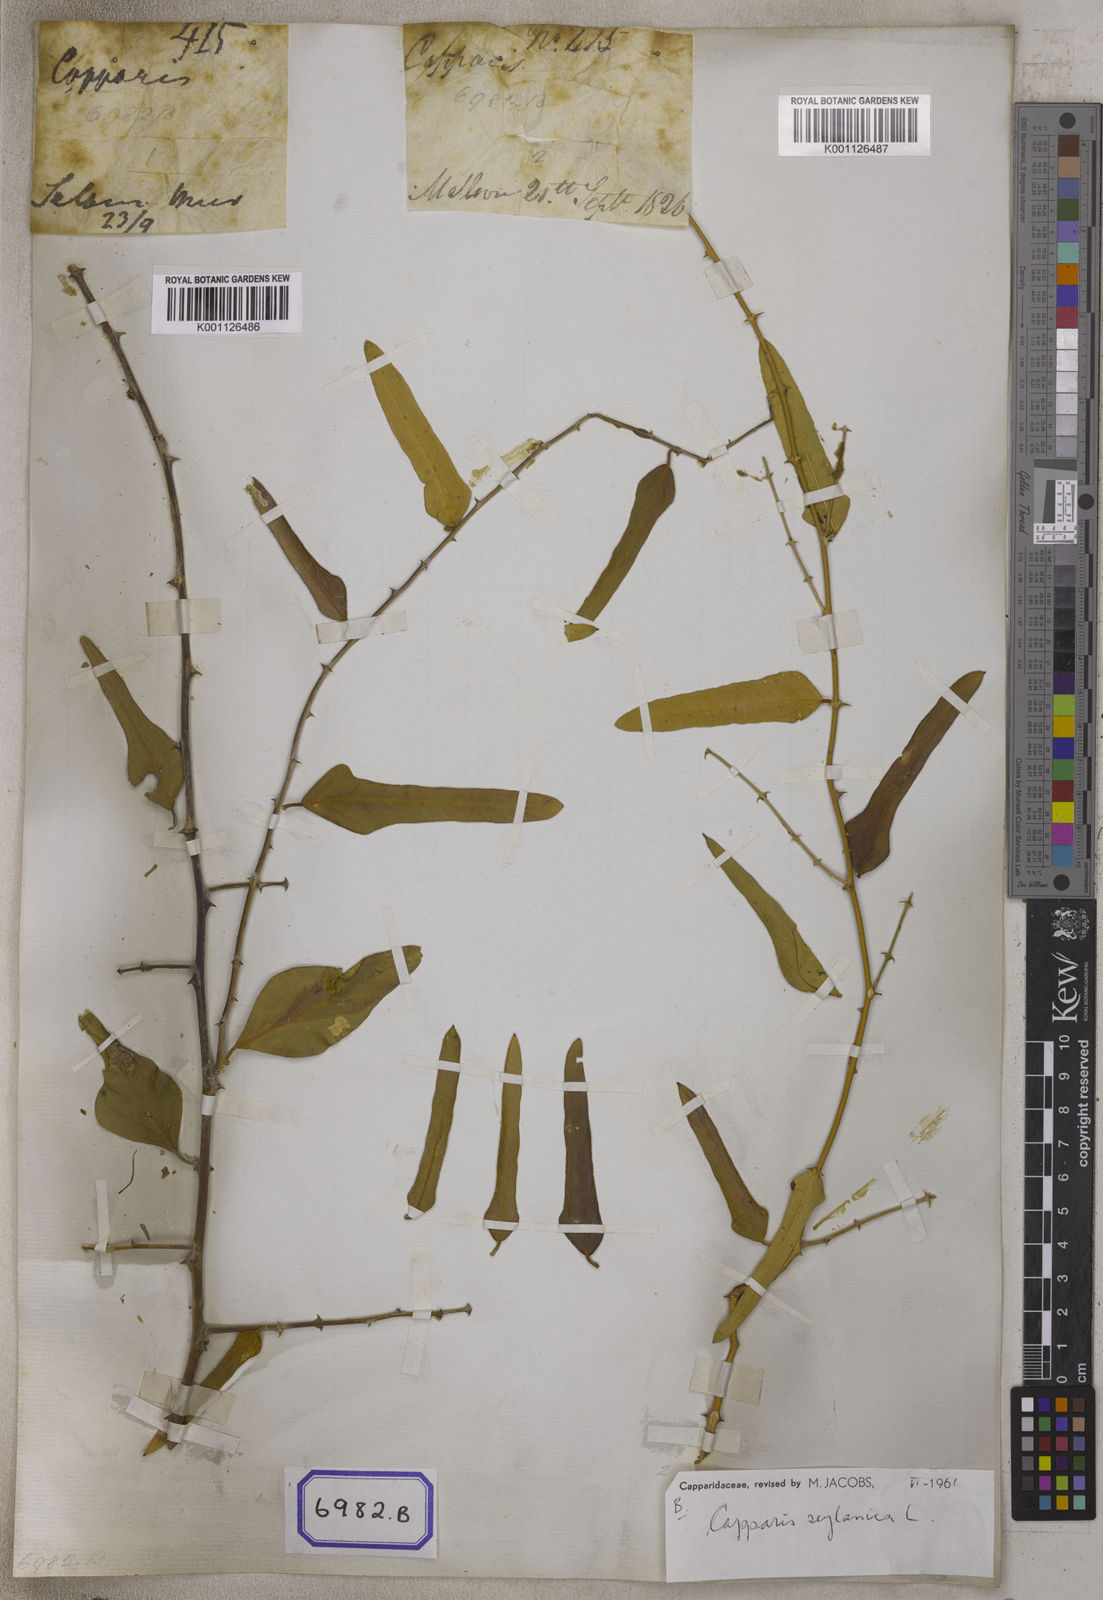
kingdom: Plantae
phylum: Tracheophyta
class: Magnoliopsida
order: Brassicales
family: Capparaceae
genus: Capparis
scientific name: Capparis
